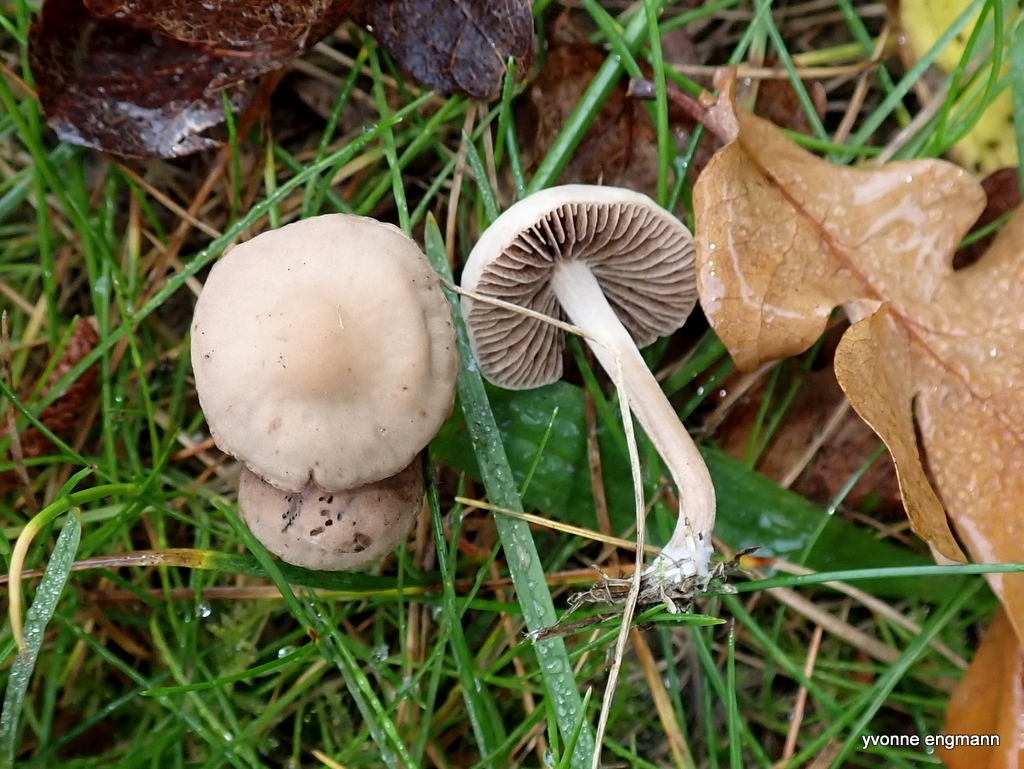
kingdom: Fungi
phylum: Basidiomycota
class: Agaricomycetes
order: Agaricales
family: Bolbitiaceae
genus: Panaeolina
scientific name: Panaeolina foenisecii
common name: høslætsvamp
